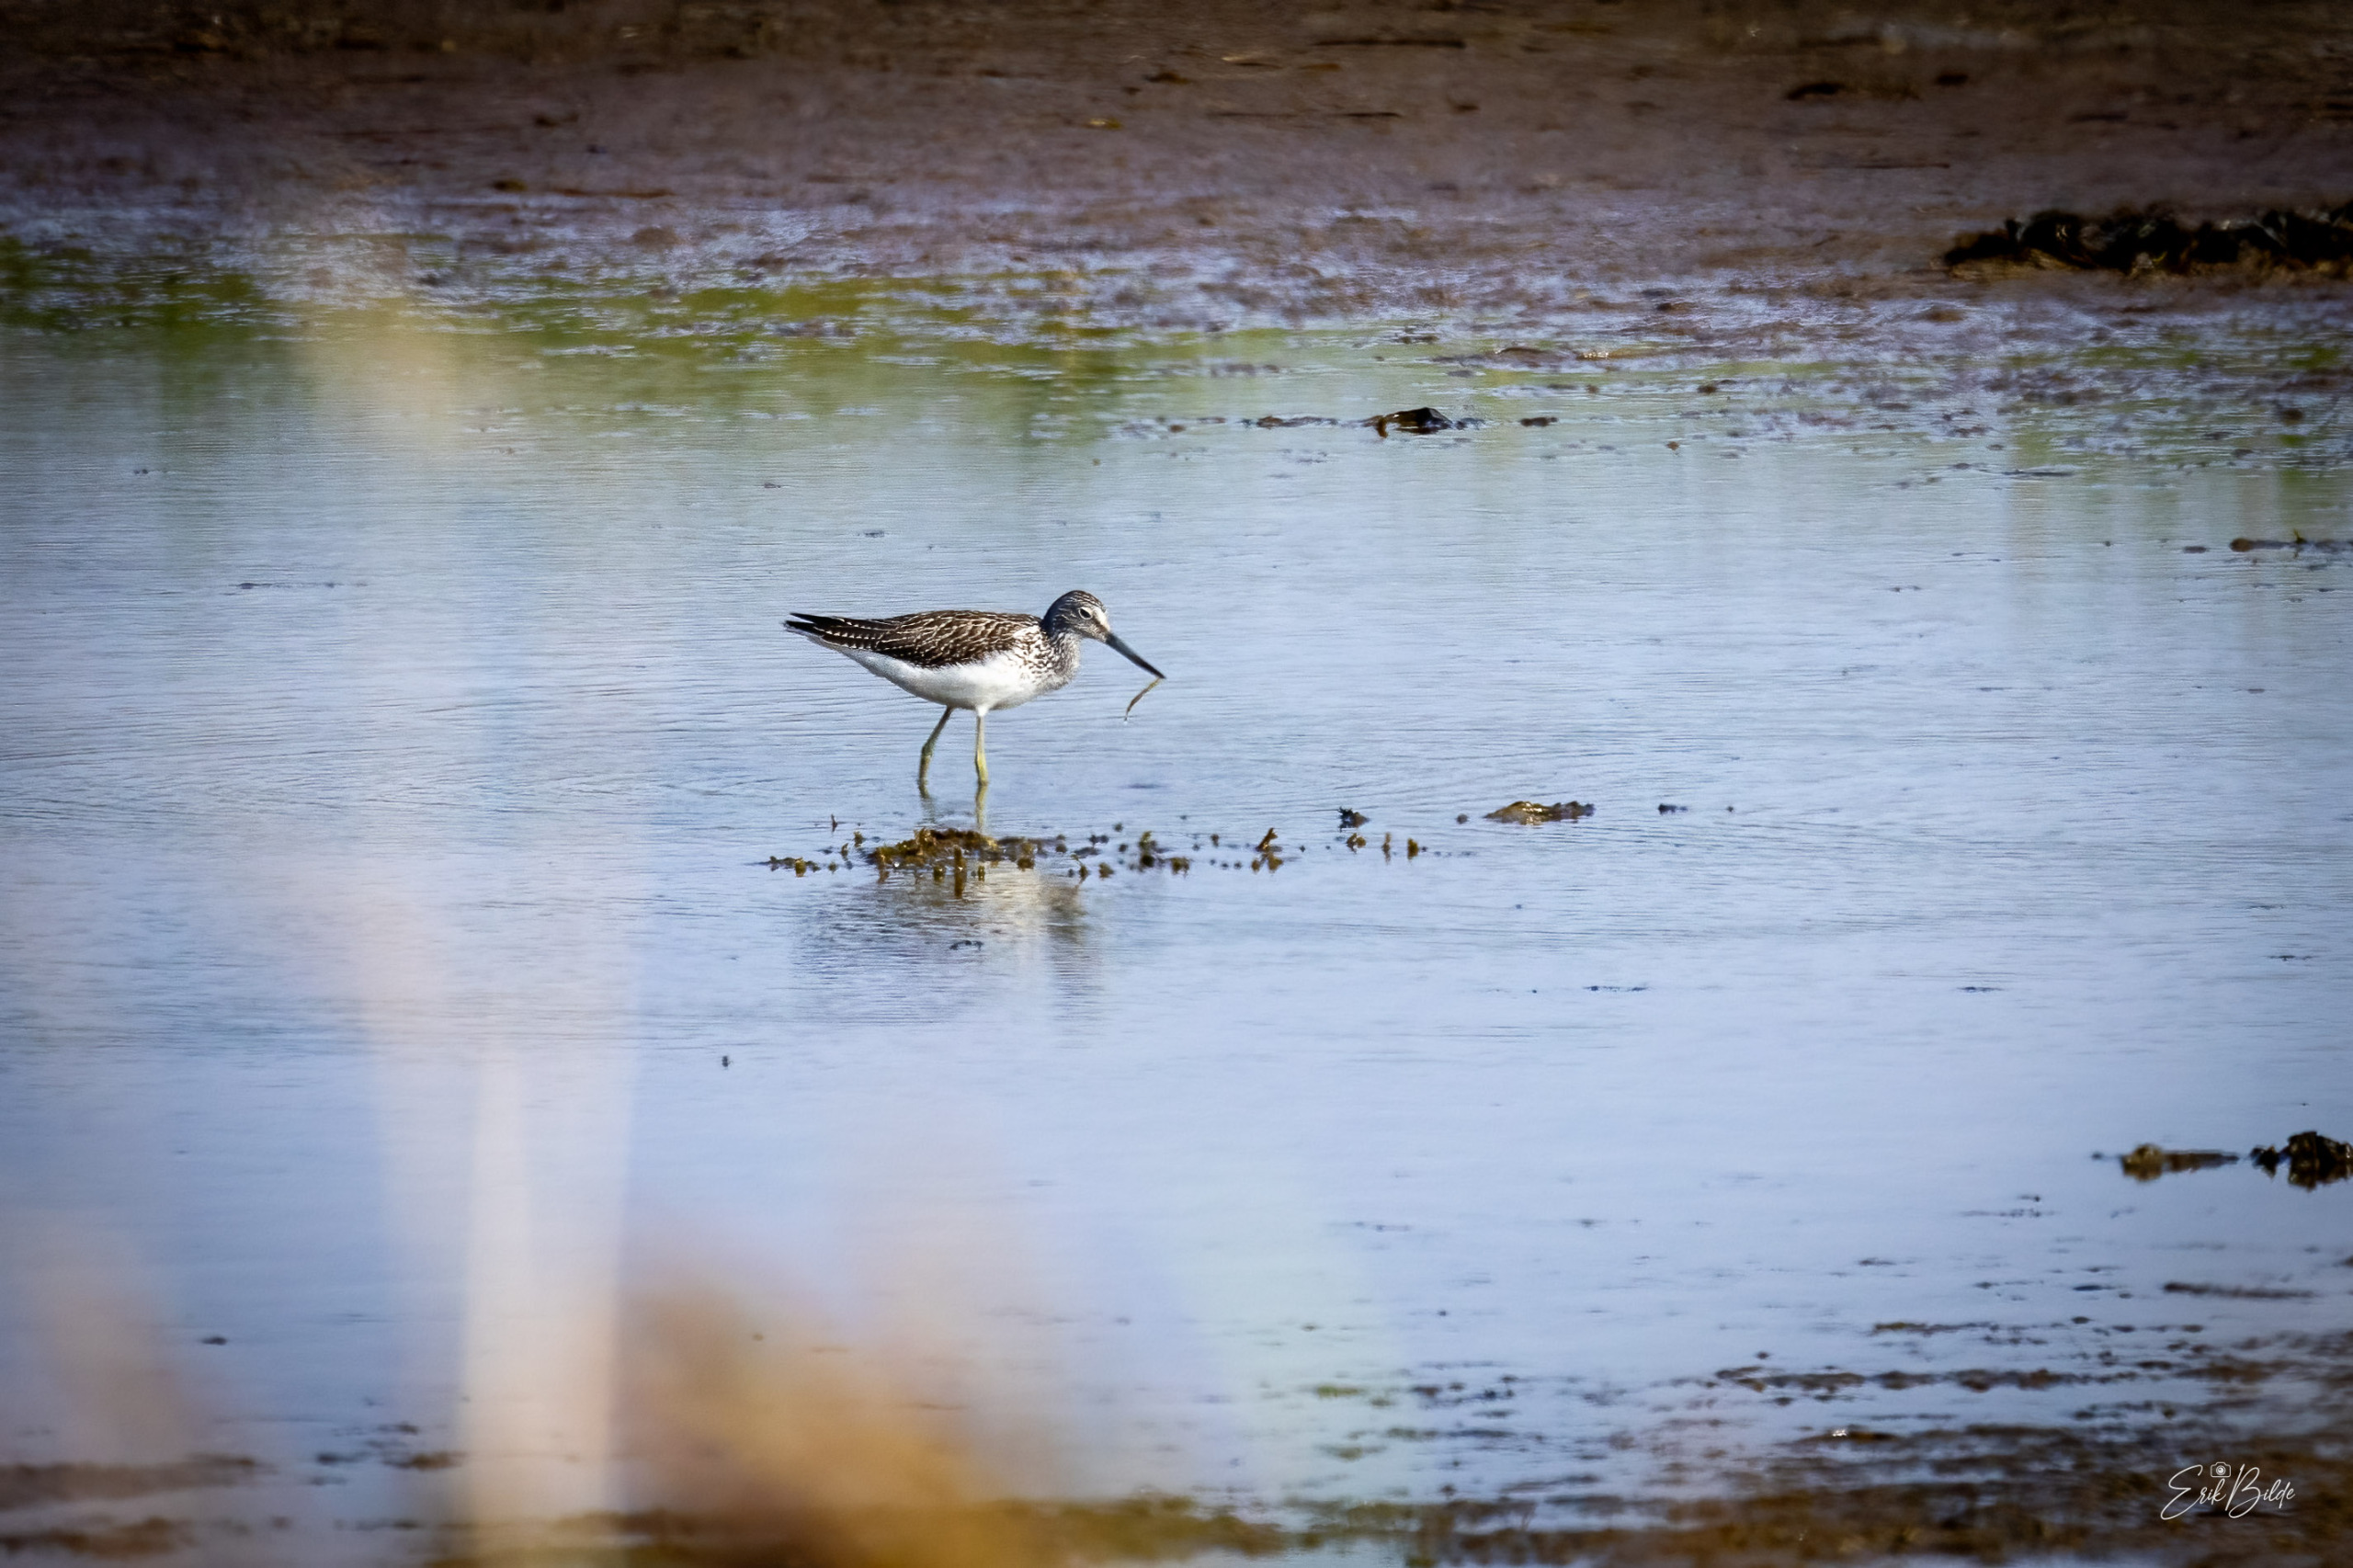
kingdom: Animalia
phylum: Chordata
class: Aves
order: Charadriiformes
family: Scolopacidae
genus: Tringa
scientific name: Tringa nebularia
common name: Hvidklire
